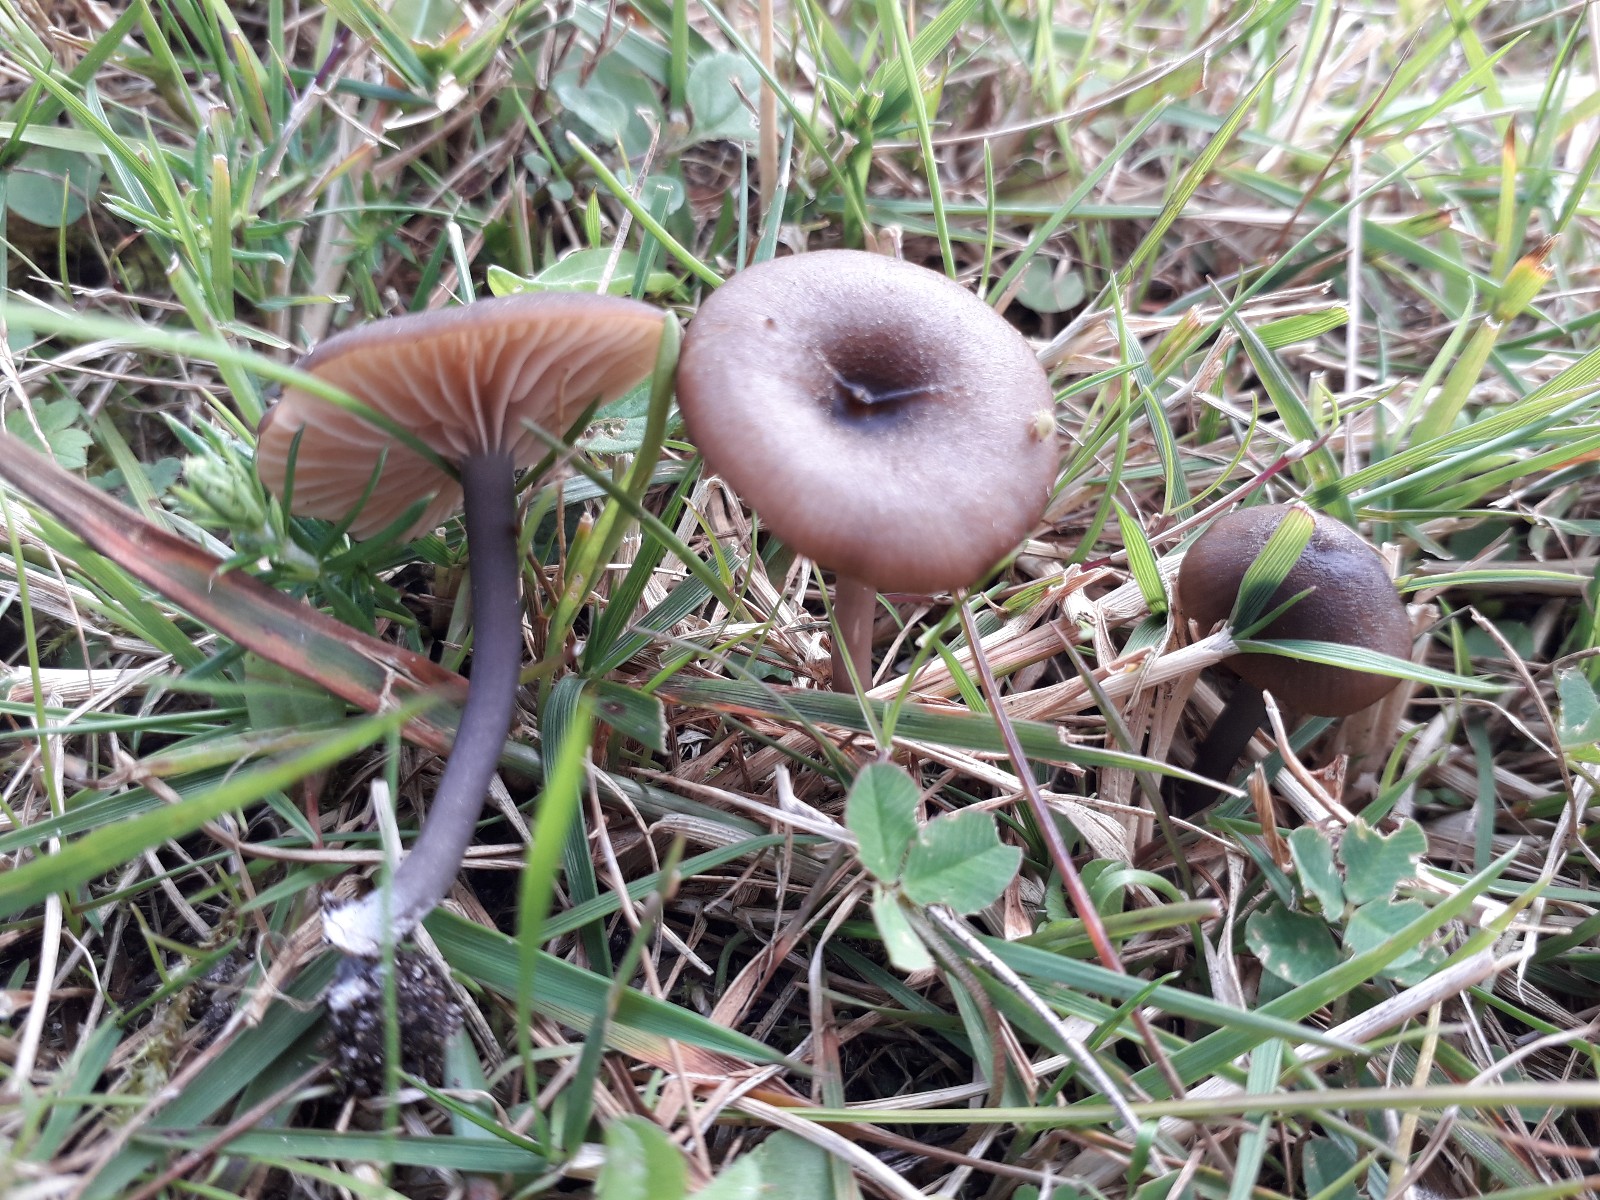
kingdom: Fungi
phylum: Basidiomycota
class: Agaricomycetes
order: Agaricales
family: Entolomataceae
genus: Entoloma
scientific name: Entoloma allospermum
